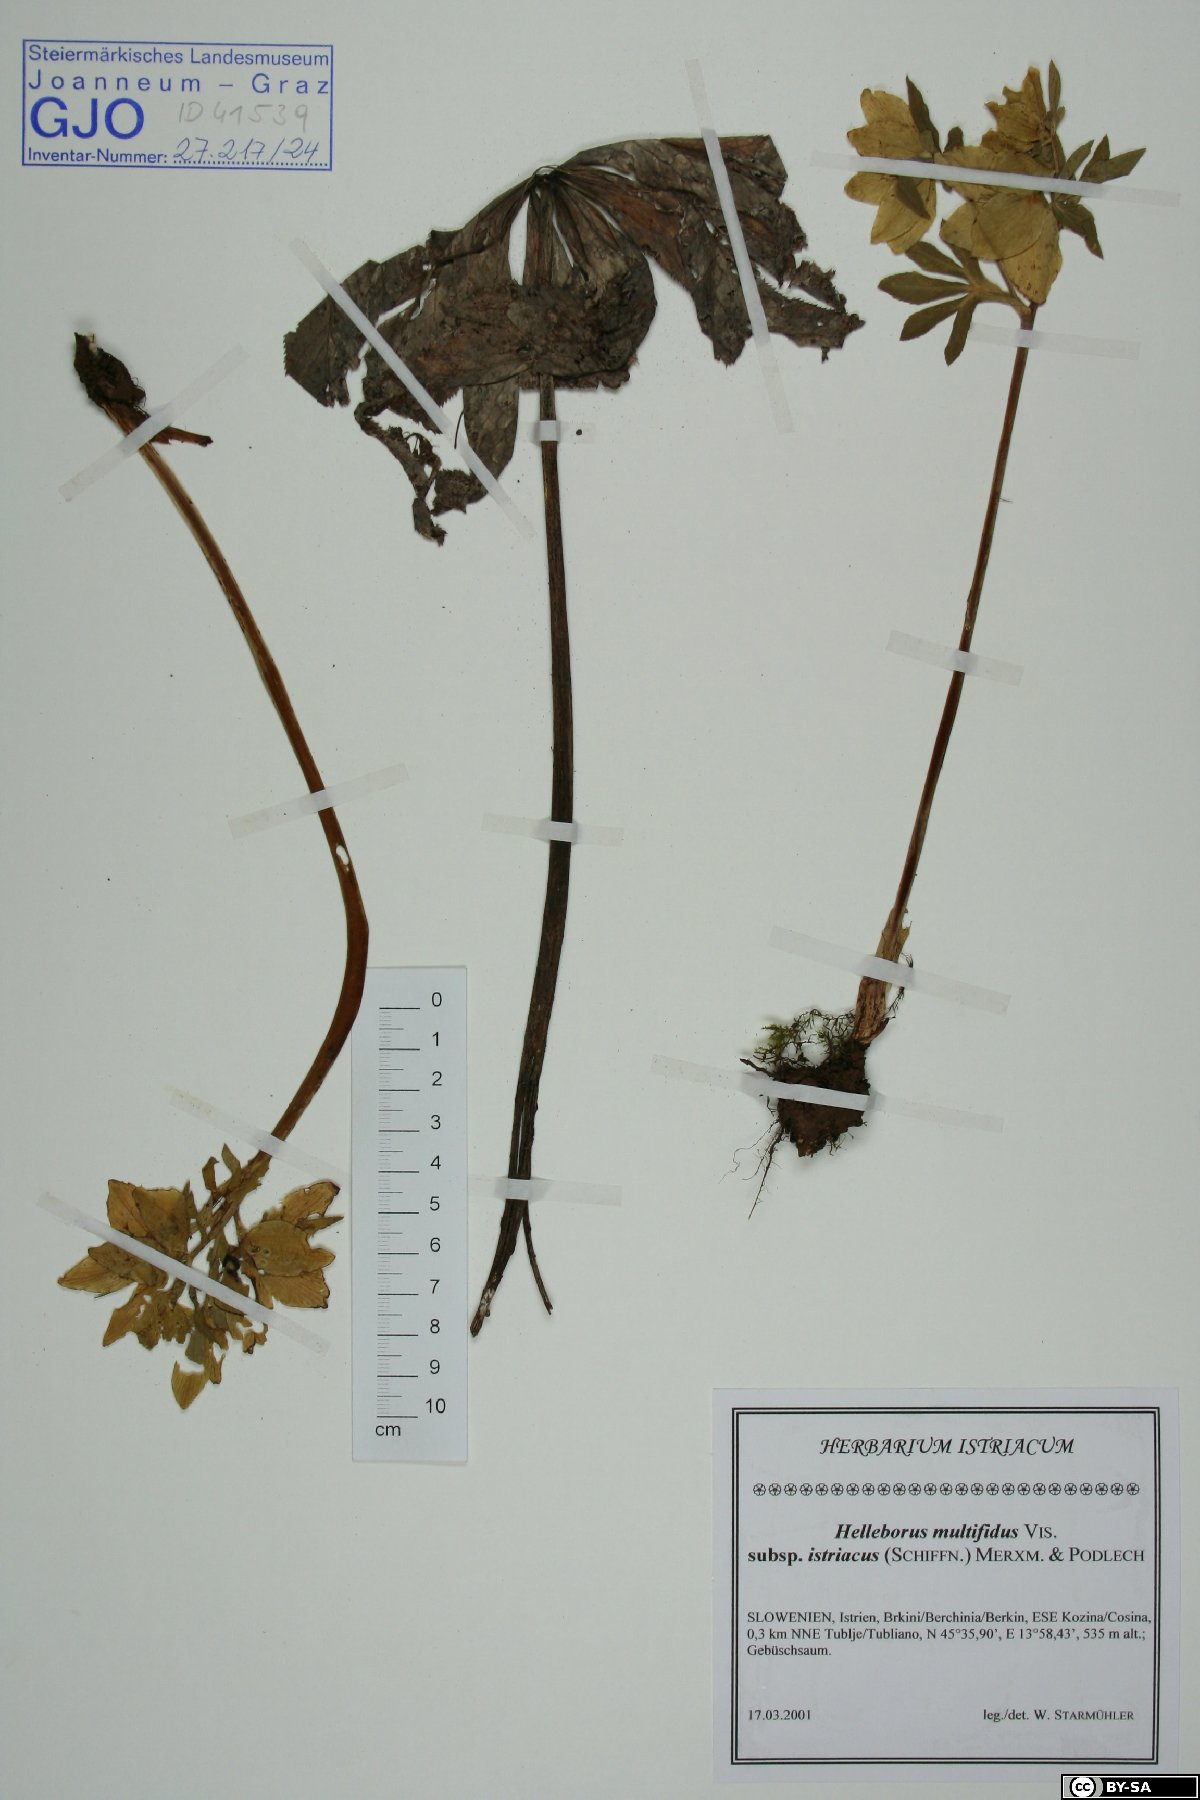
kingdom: Plantae
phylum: Tracheophyta
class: Magnoliopsida
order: Ranunculales
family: Ranunculaceae
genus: Helleborus
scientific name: Helleborus bocconei
